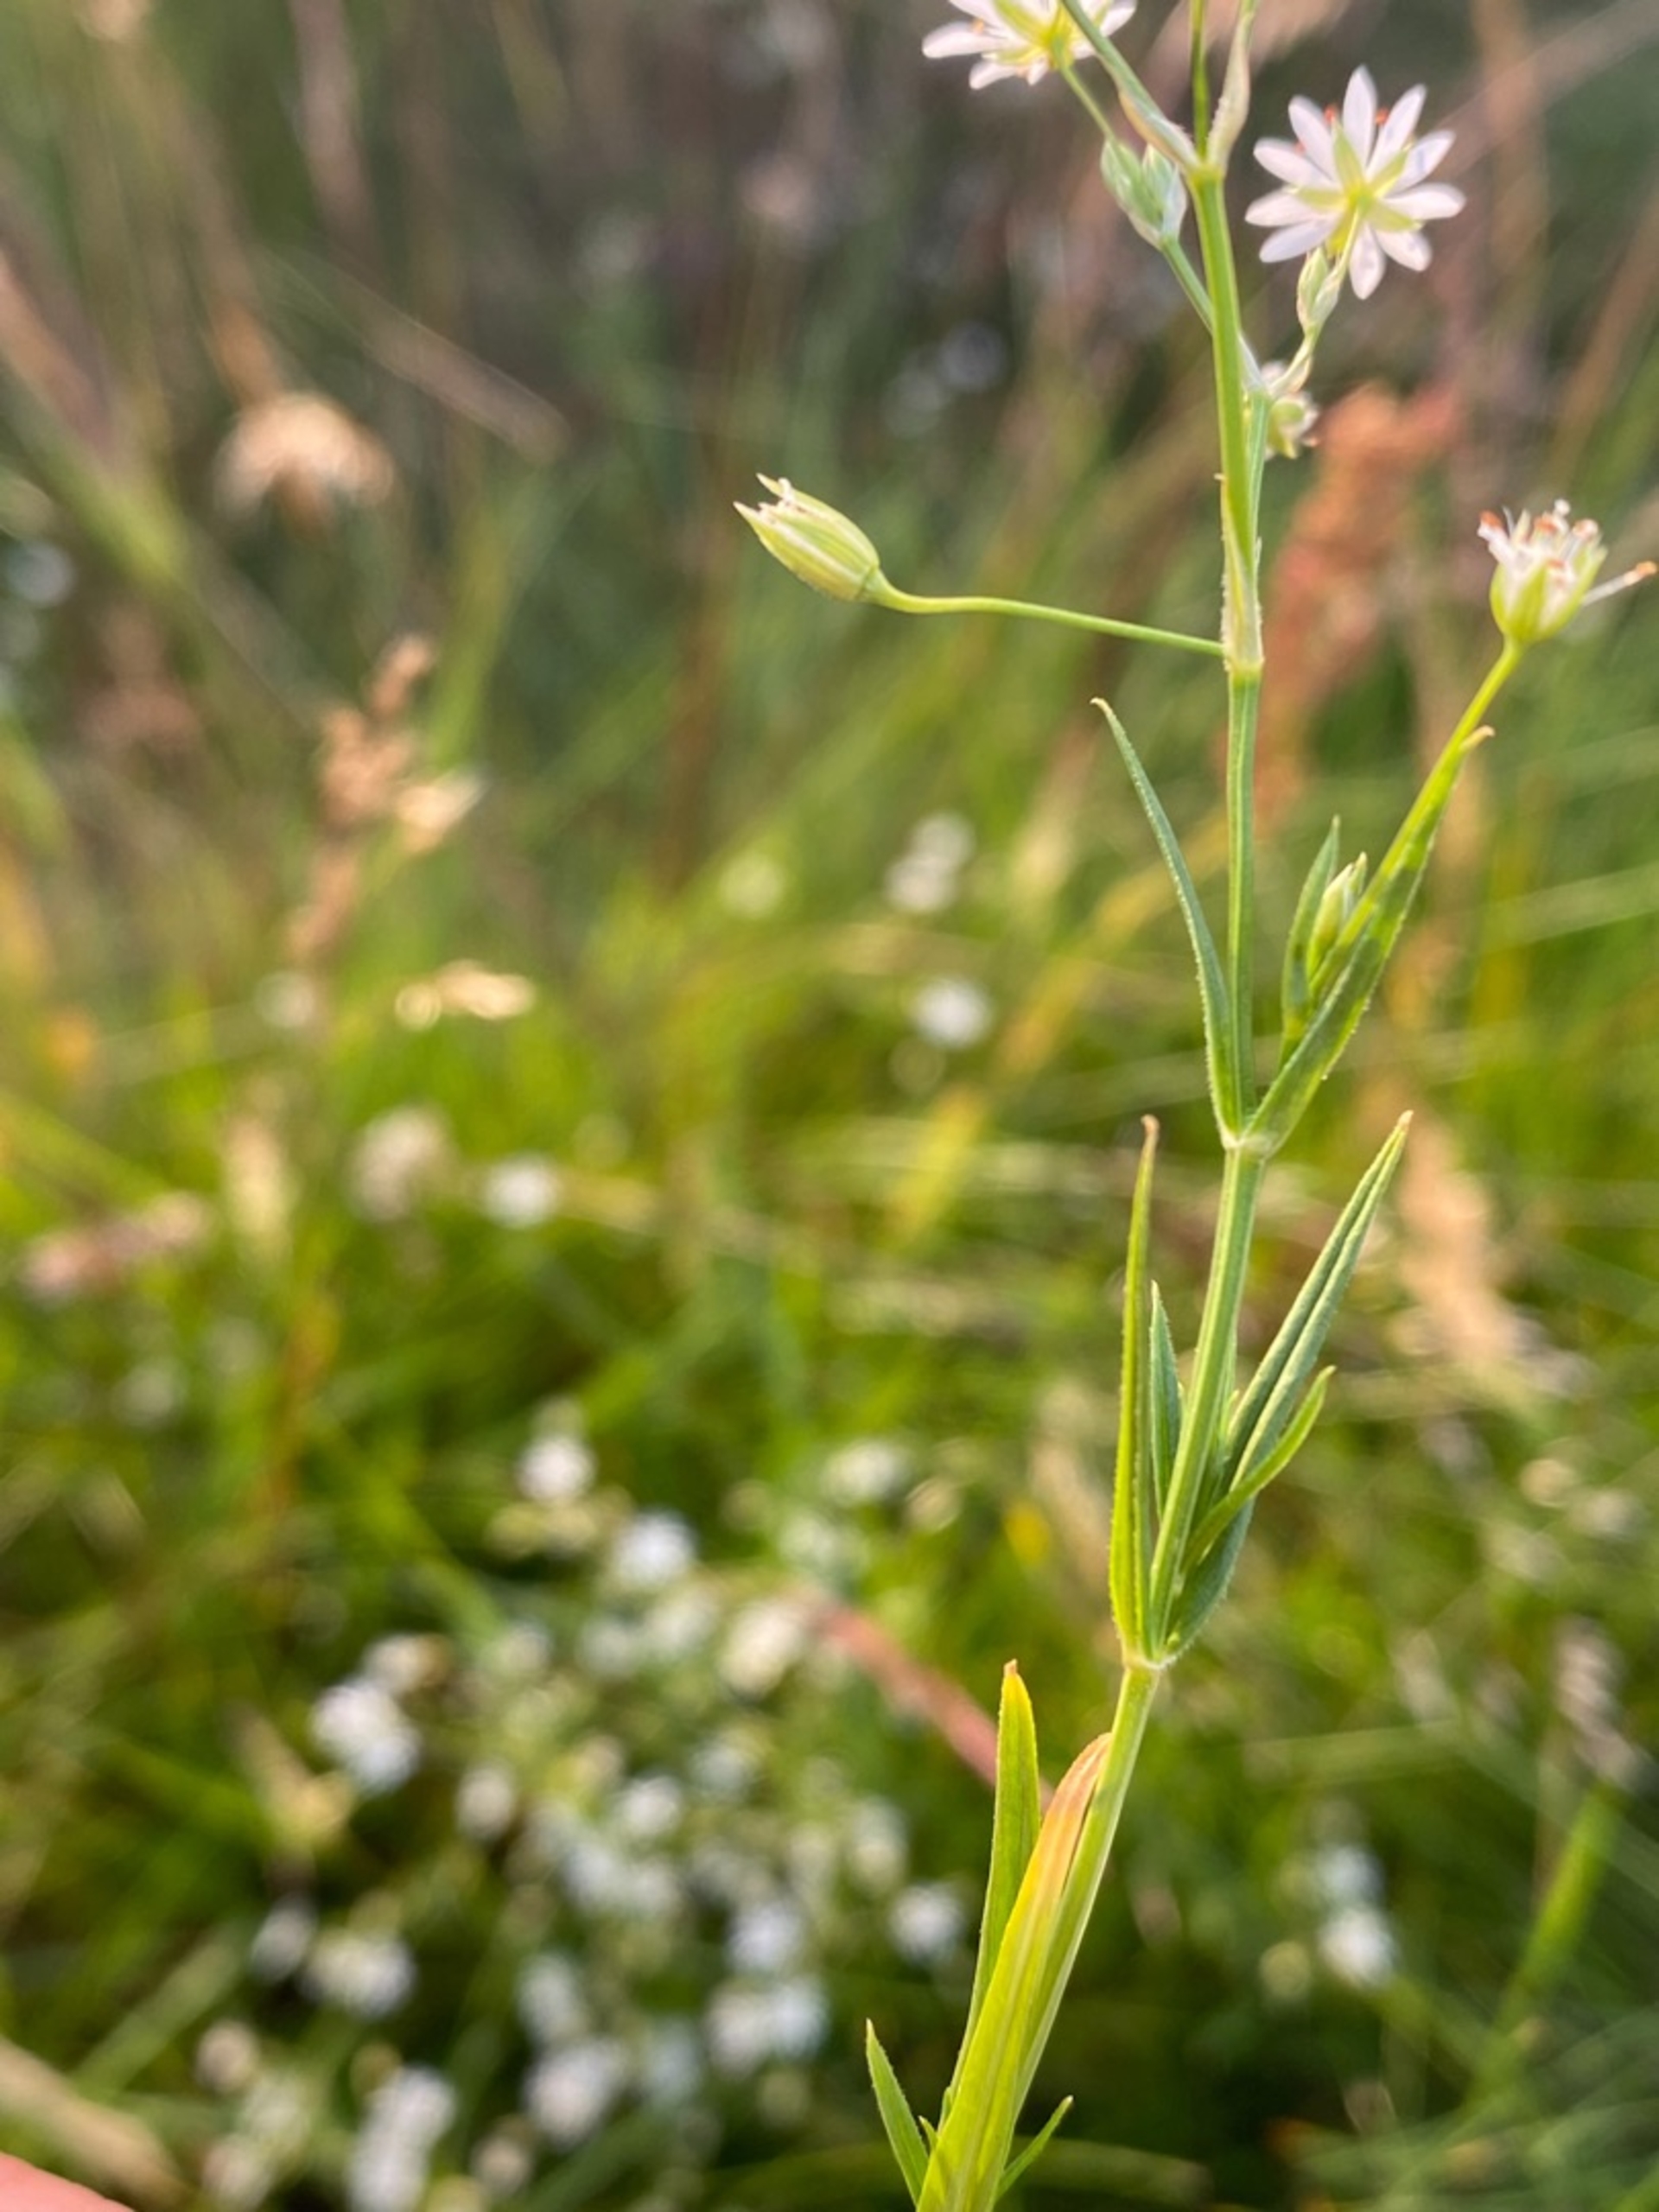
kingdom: Plantae
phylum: Tracheophyta
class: Magnoliopsida
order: Caryophyllales
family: Caryophyllaceae
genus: Stellaria
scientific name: Stellaria graminea
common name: Græsbladet fladstjerne
